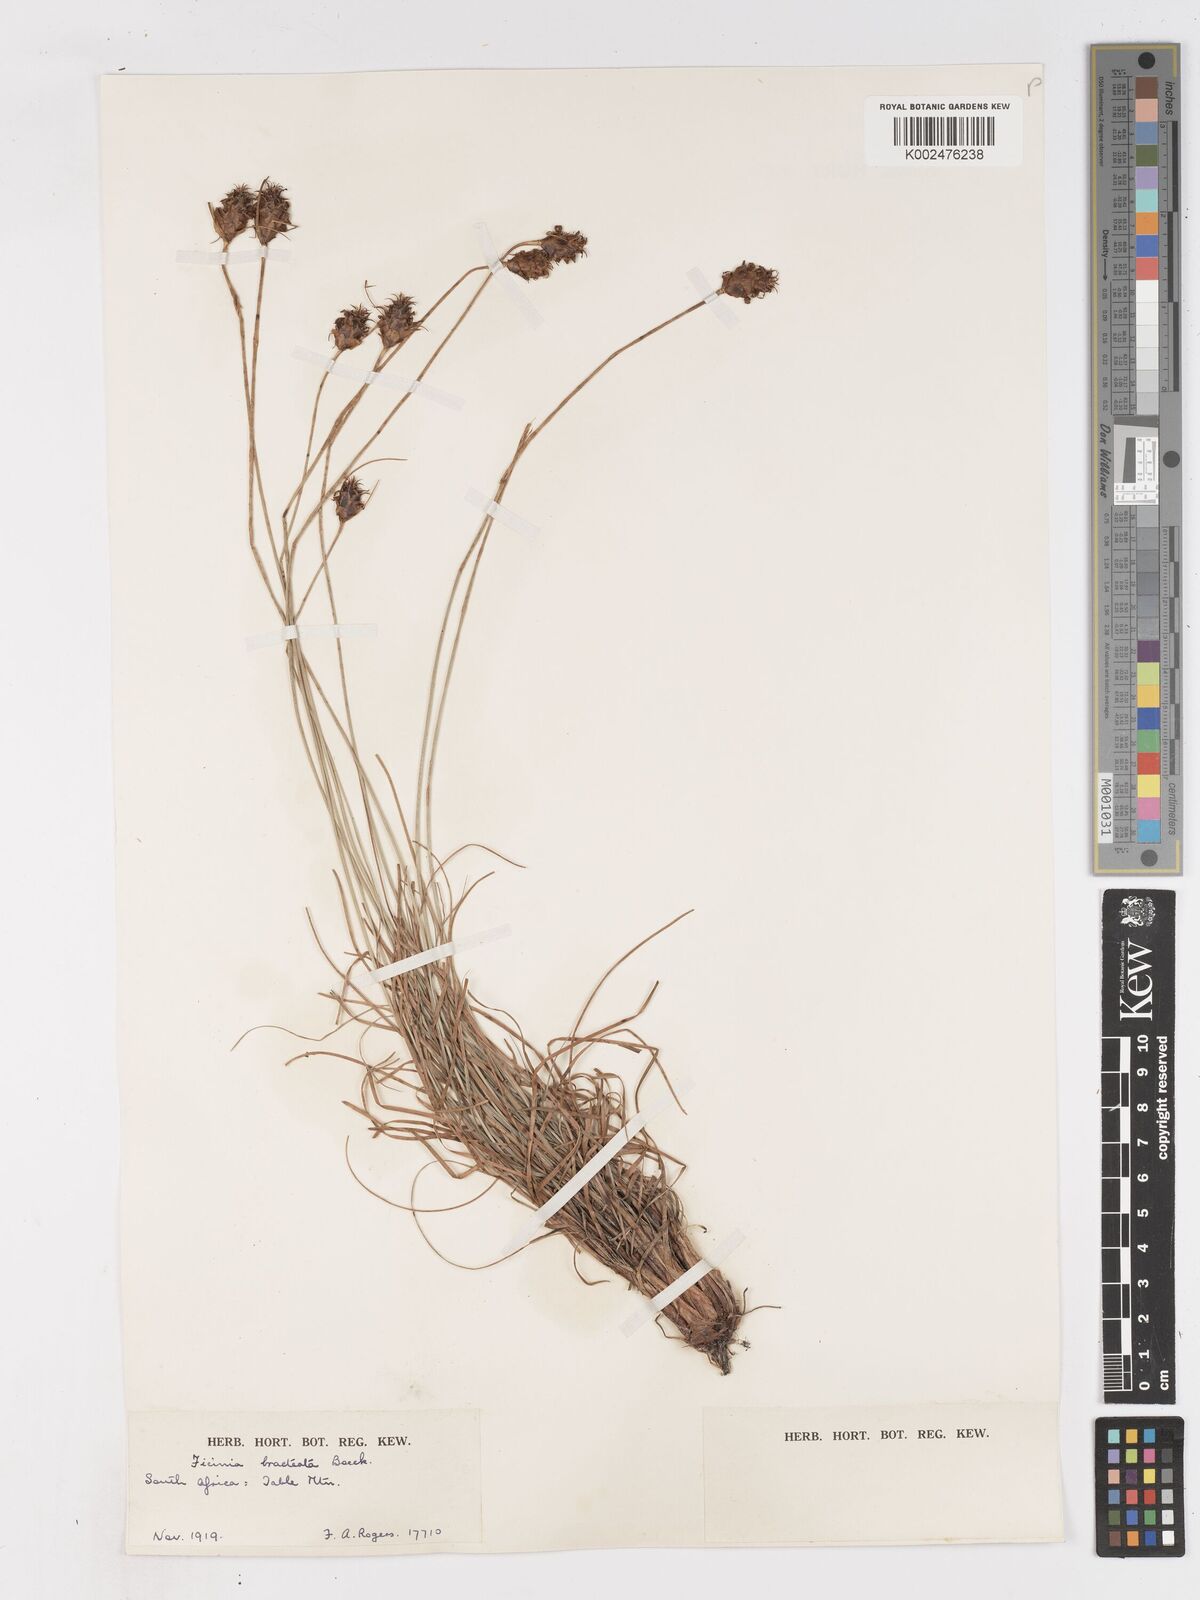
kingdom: Plantae
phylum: Tracheophyta
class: Liliopsida
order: Poales
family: Cyperaceae
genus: Ficinia
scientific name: Ficinia nigrescens
